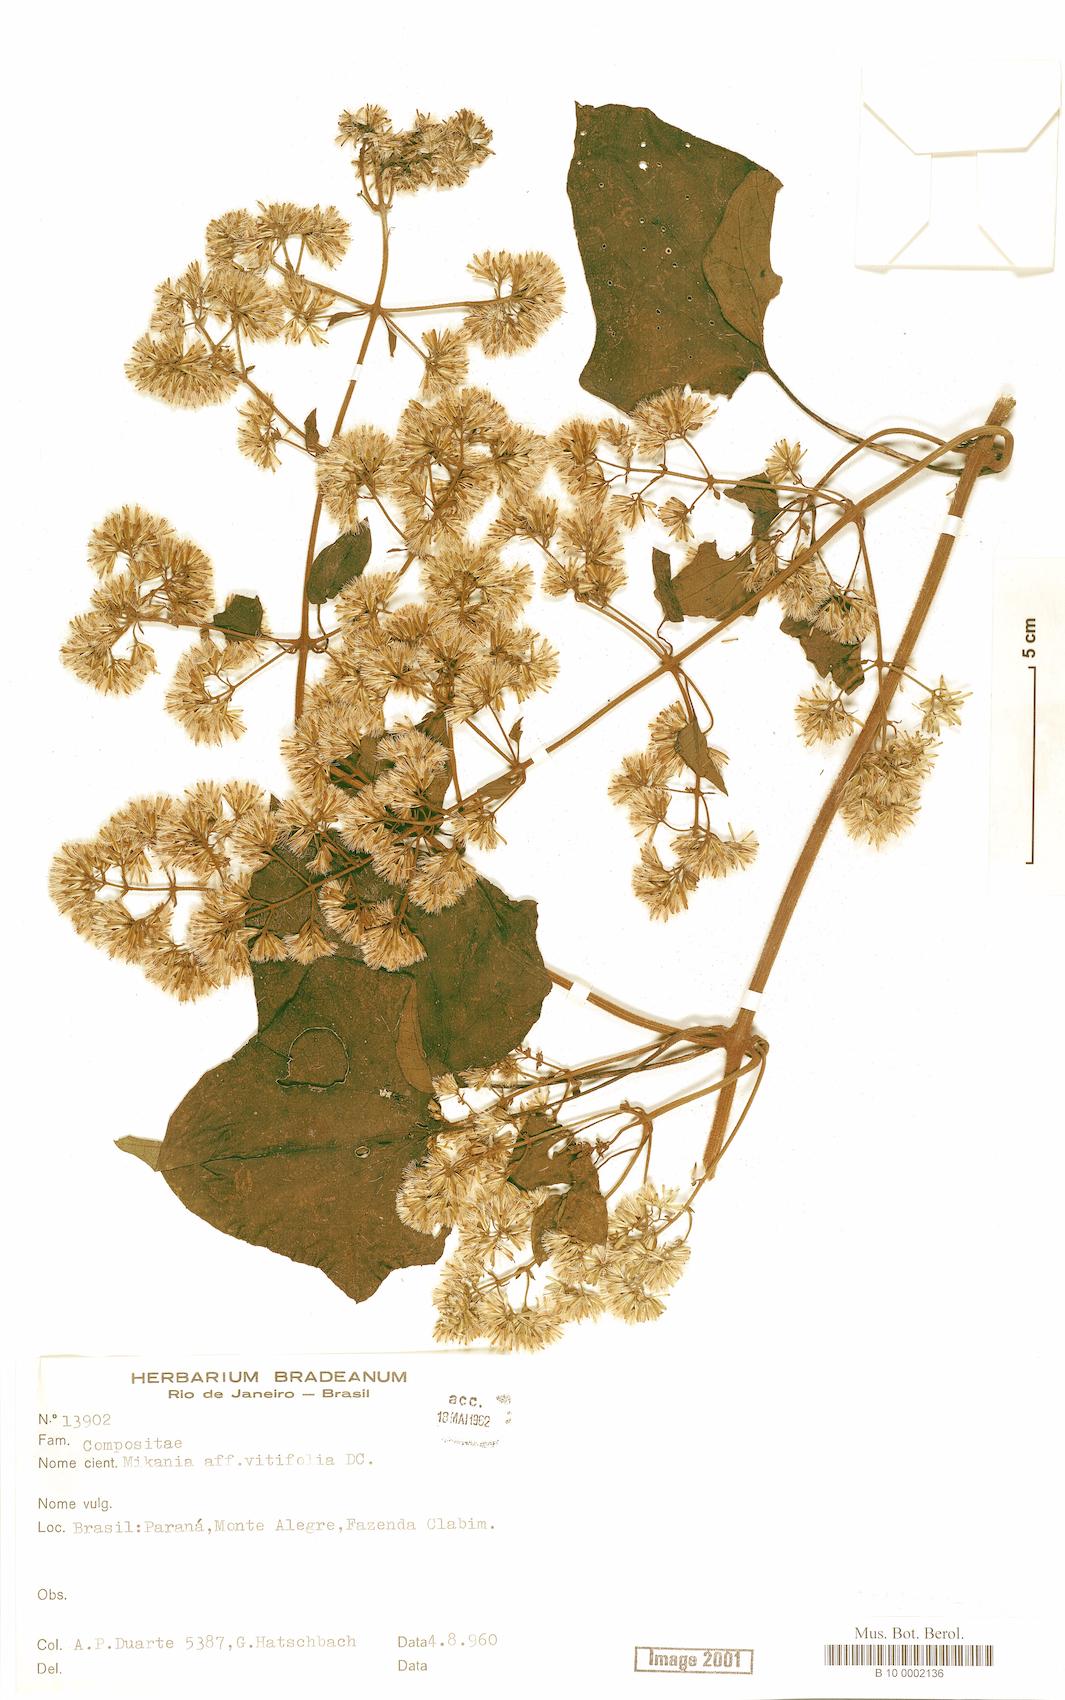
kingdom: Plantae
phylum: Tracheophyta
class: Magnoliopsida
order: Asterales
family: Asteraceae
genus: Mikania
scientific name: Mikania vitifolia
